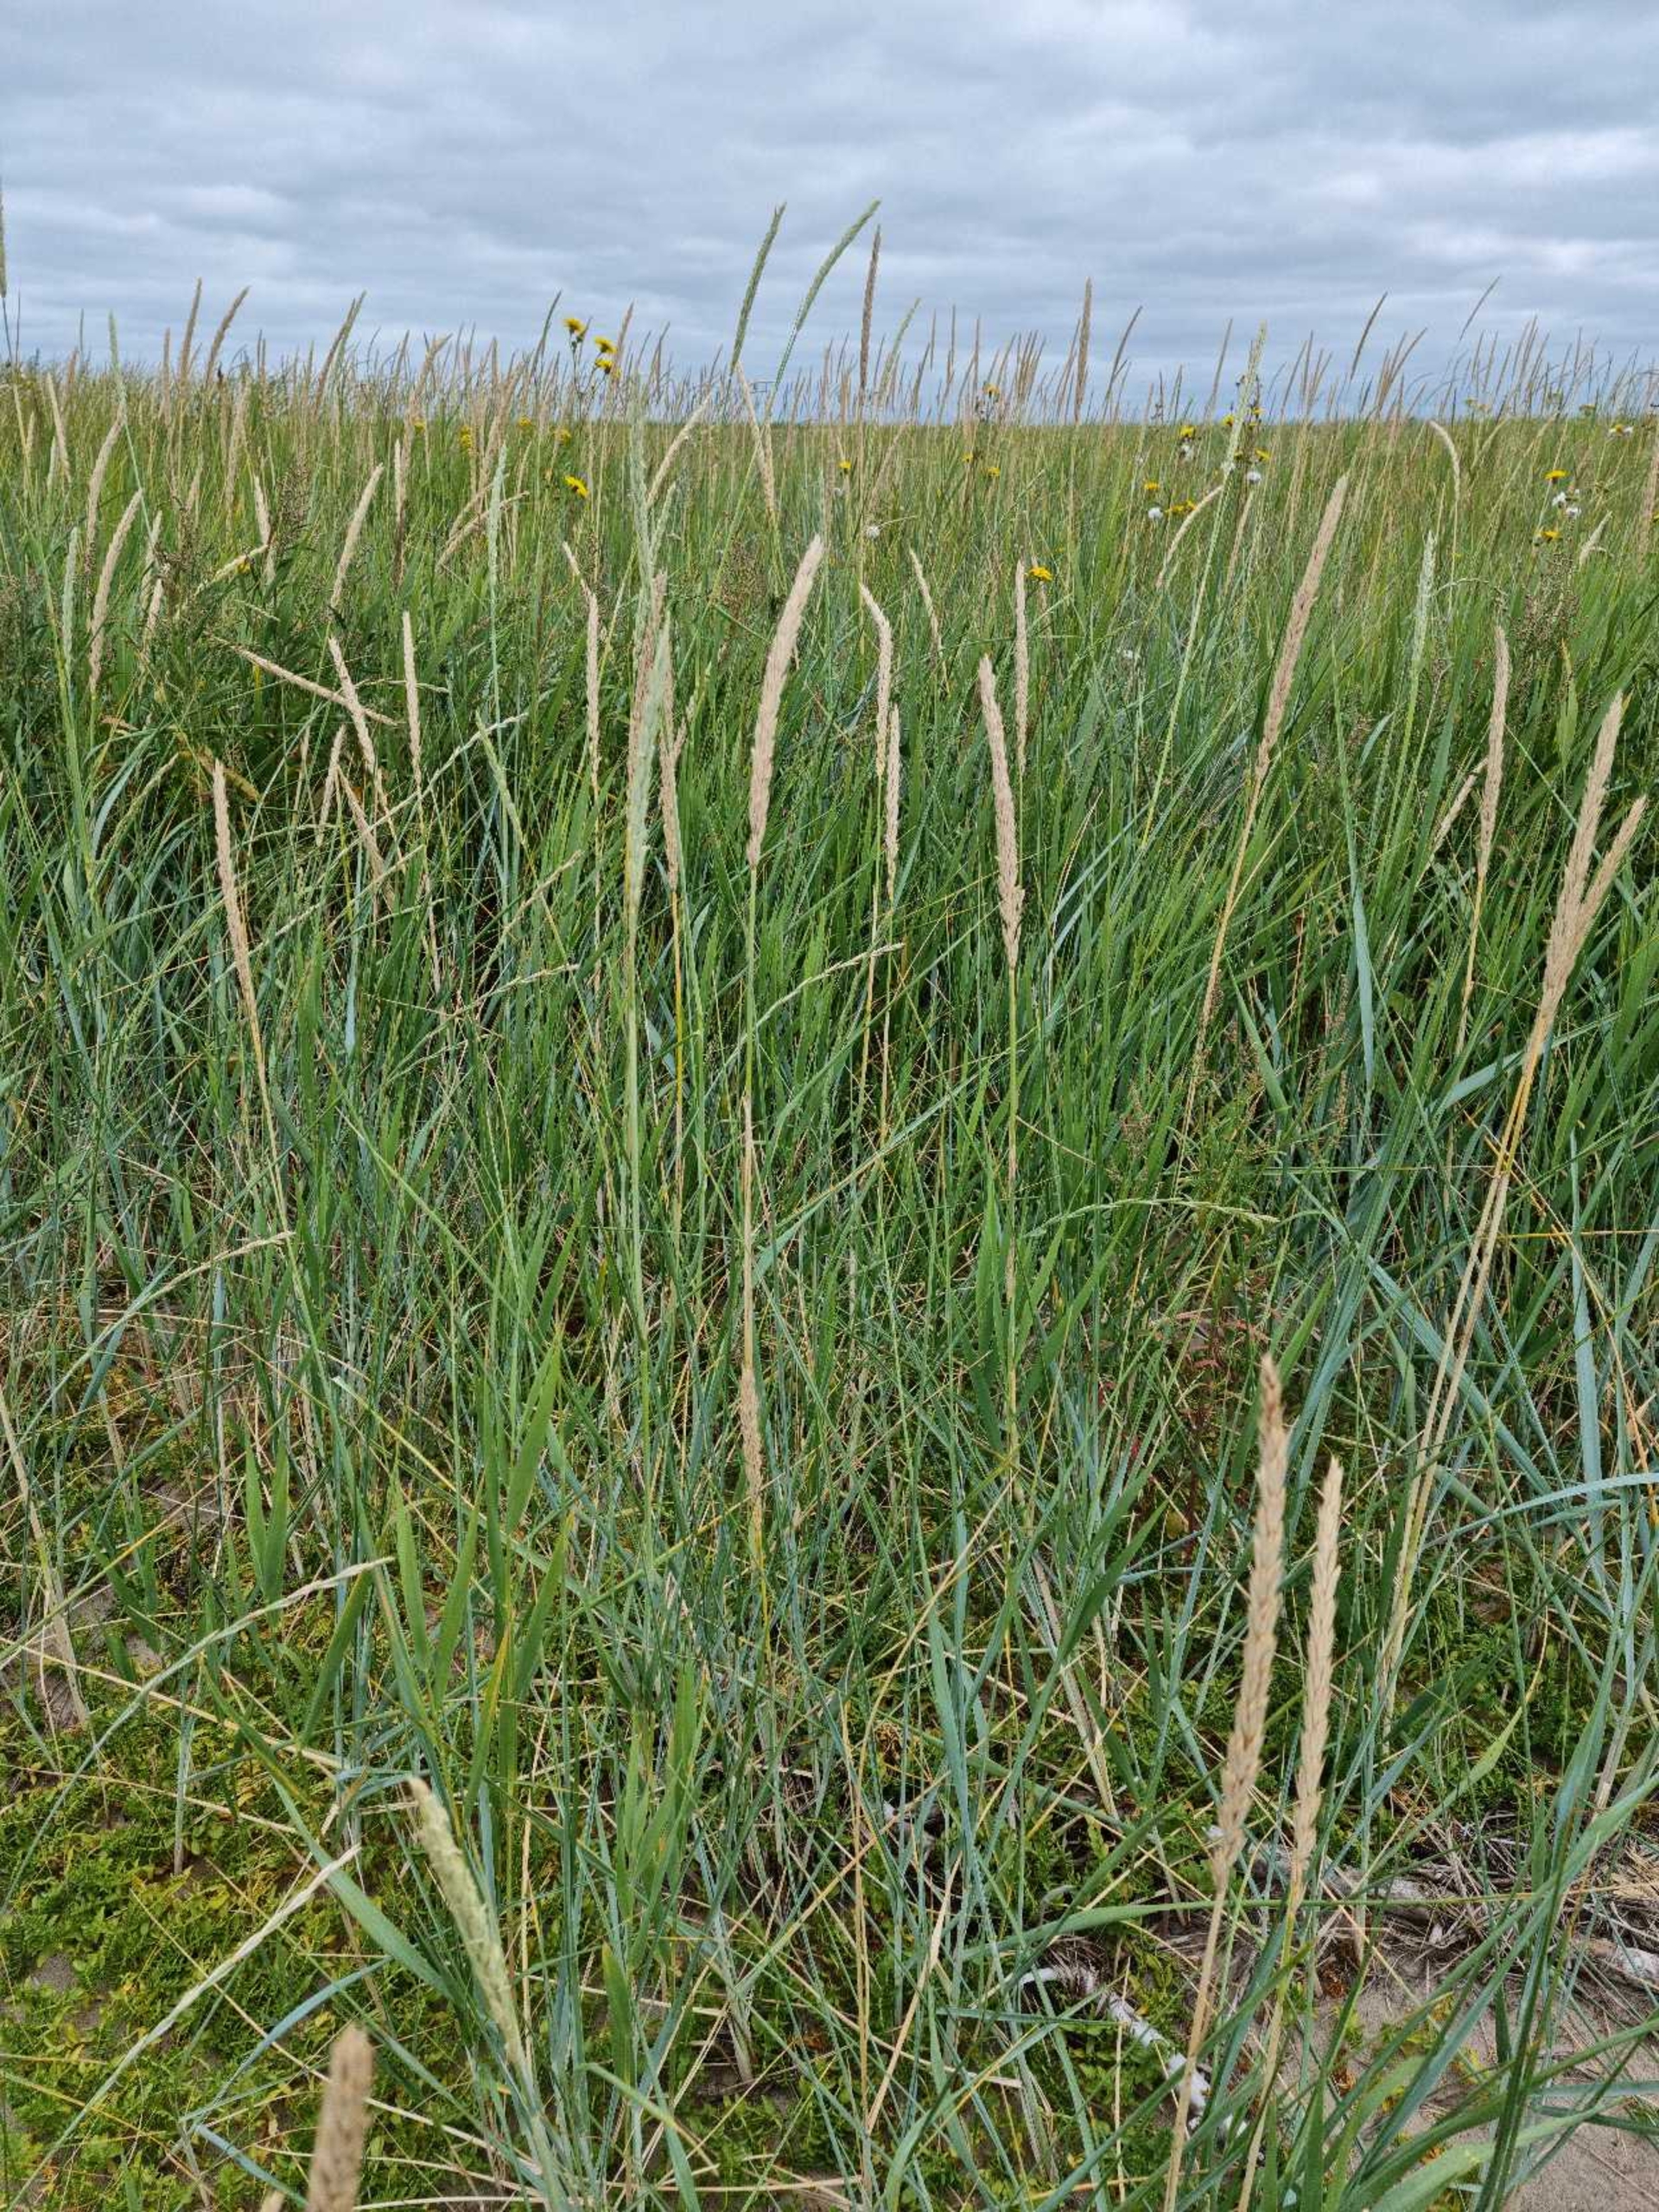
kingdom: Plantae
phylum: Tracheophyta
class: Liliopsida
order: Poales
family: Poaceae
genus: Leymus
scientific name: Leymus arenarius
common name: Marehalm
